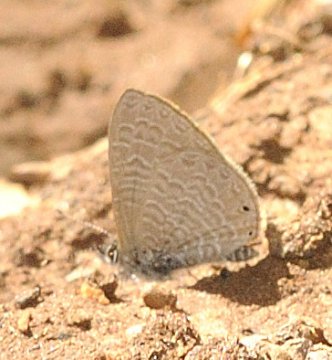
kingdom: Animalia
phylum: Arthropoda
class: Insecta
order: Lepidoptera
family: Lycaenidae
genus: Pseudonacaduba
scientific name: Pseudonacaduba sichela
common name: African Line Blue
